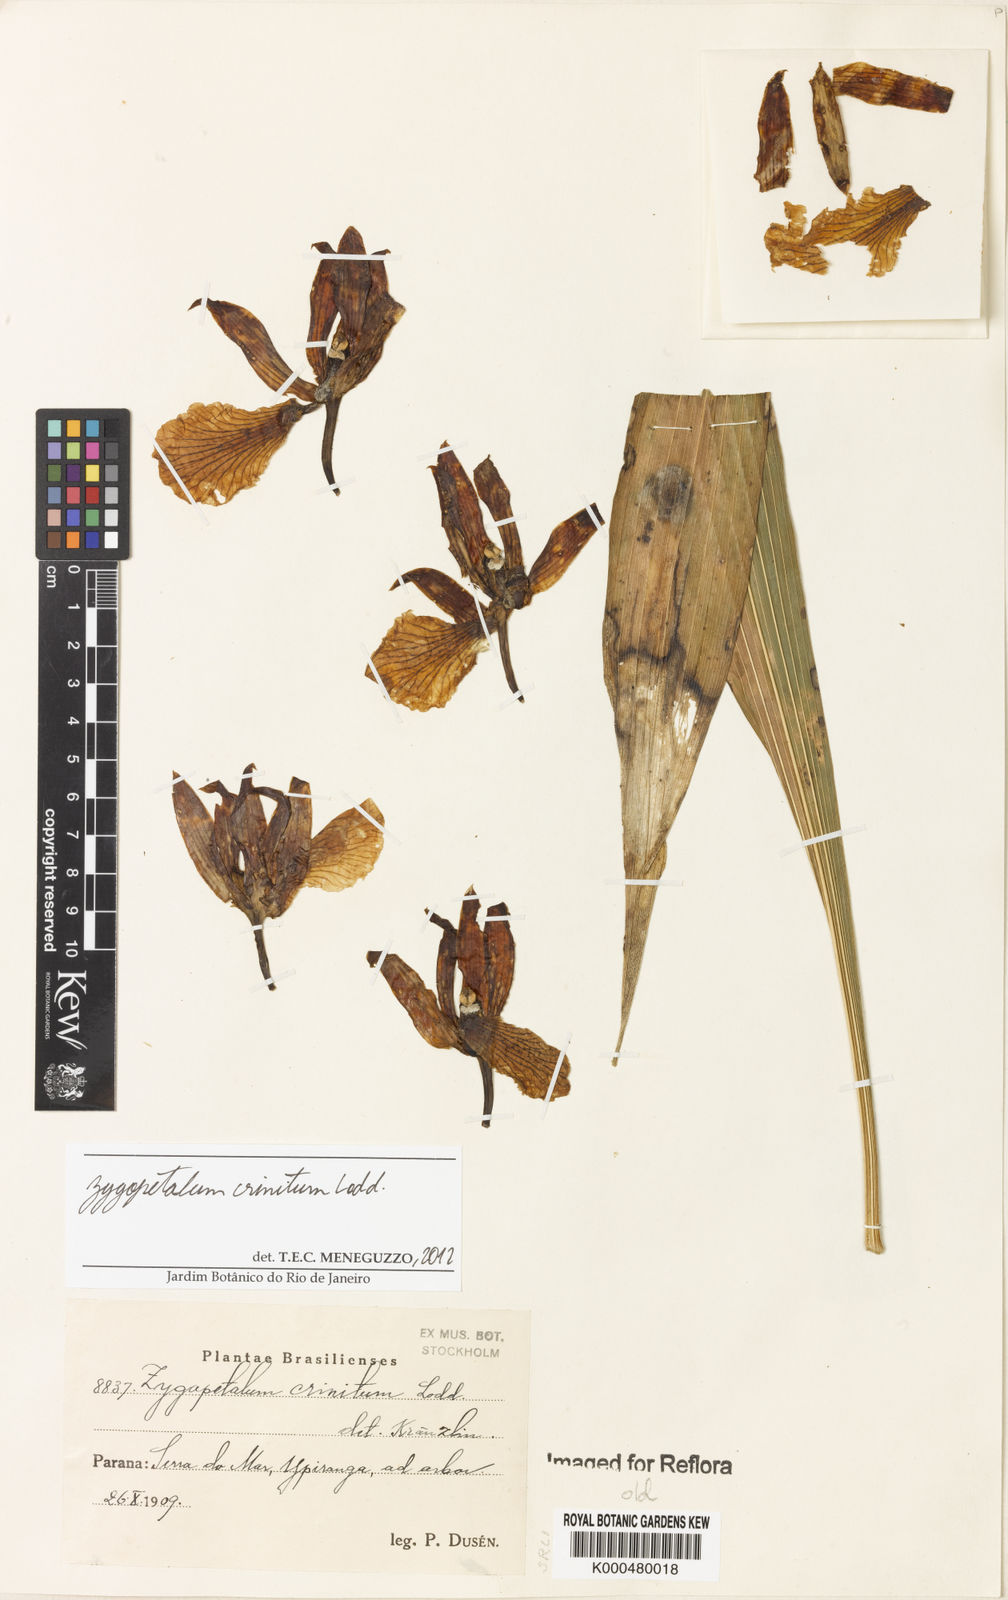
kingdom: Plantae
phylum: Tracheophyta
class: Liliopsida
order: Asparagales
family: Orchidaceae
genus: Zygopetalum
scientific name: Zygopetalum crinitum
